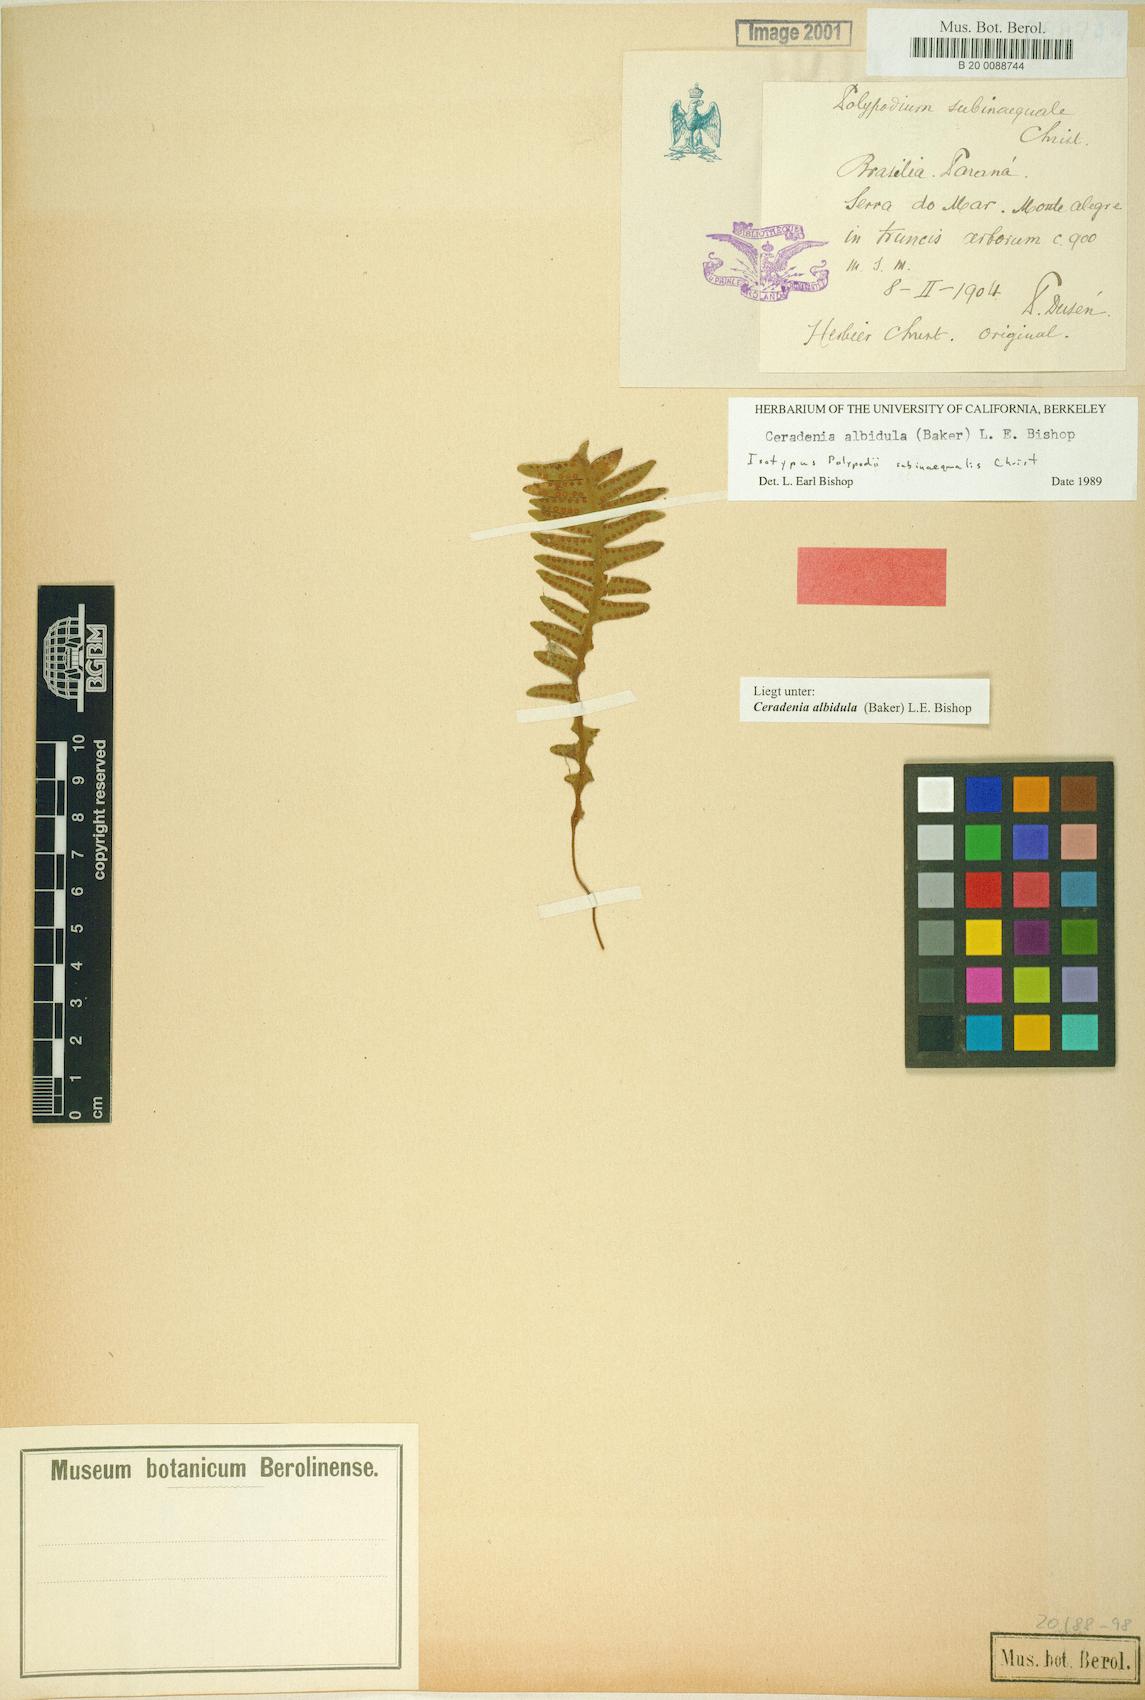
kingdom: Plantae
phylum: Tracheophyta
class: Polypodiopsida
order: Polypodiales
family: Polypodiaceae
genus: Ceradenia
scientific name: Ceradenia albidula
